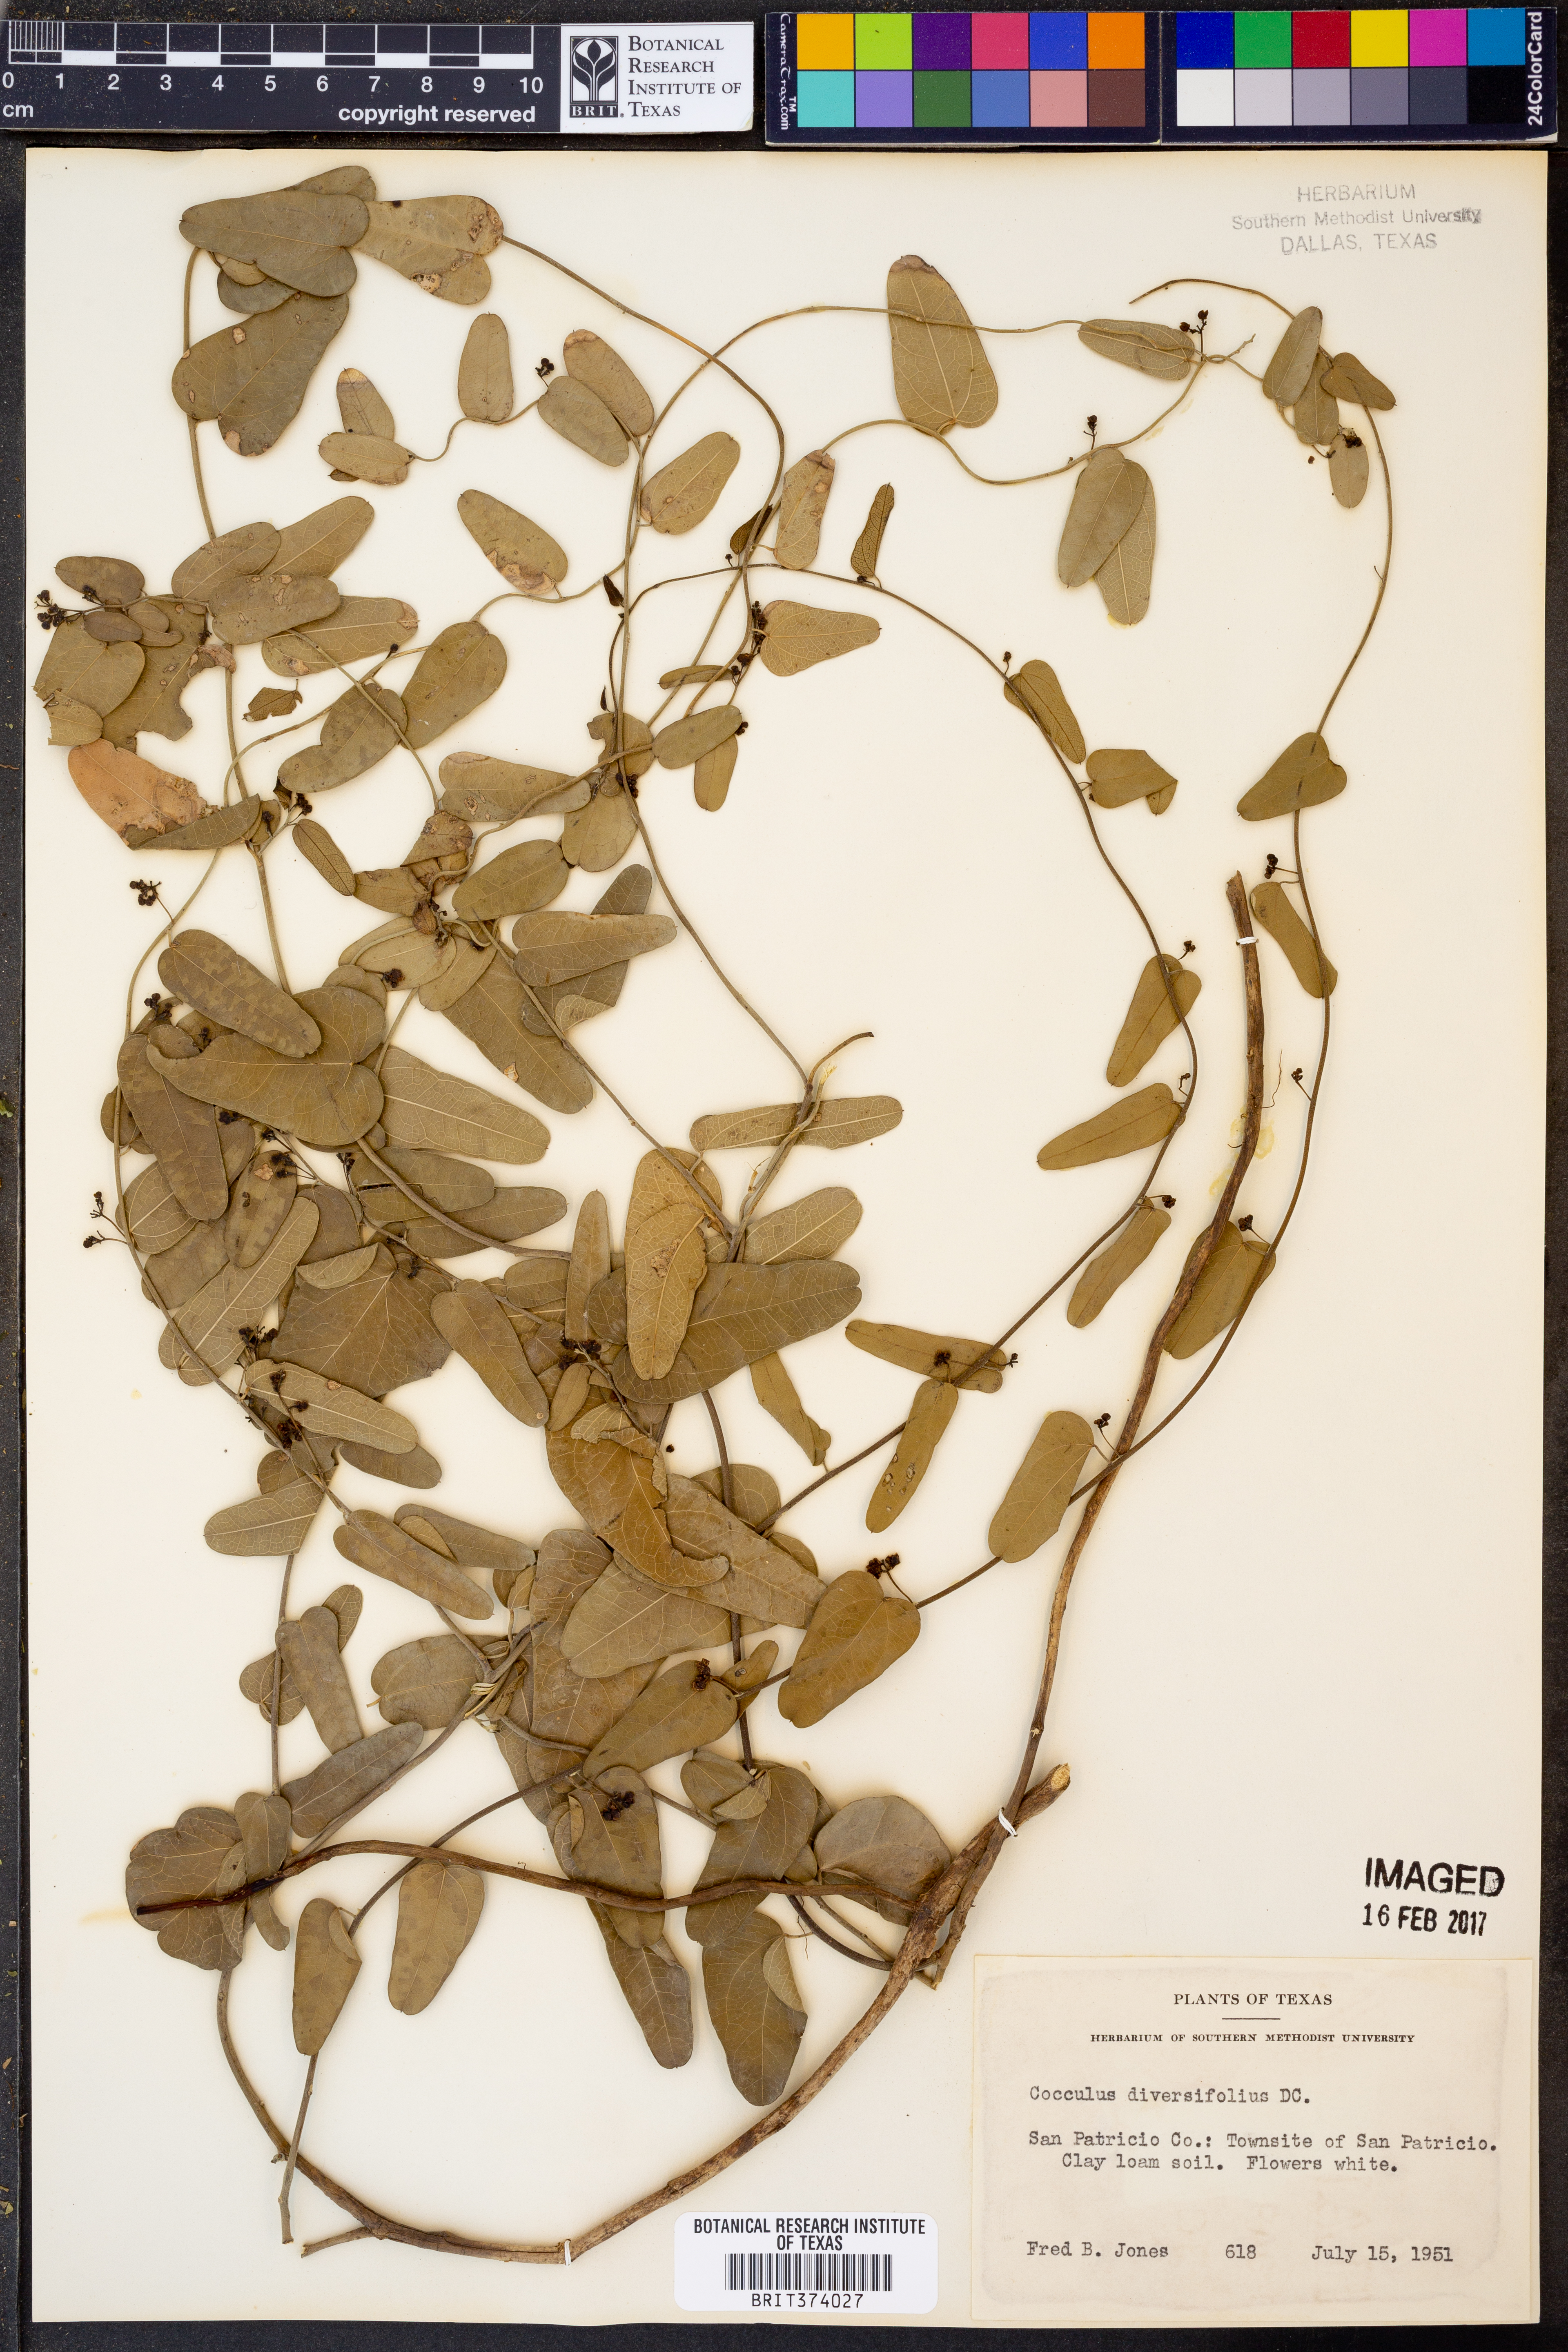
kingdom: Plantae
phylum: Tracheophyta
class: Magnoliopsida
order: Ranunculales
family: Menispermaceae
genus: Cocculus
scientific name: Cocculus diversifolius
